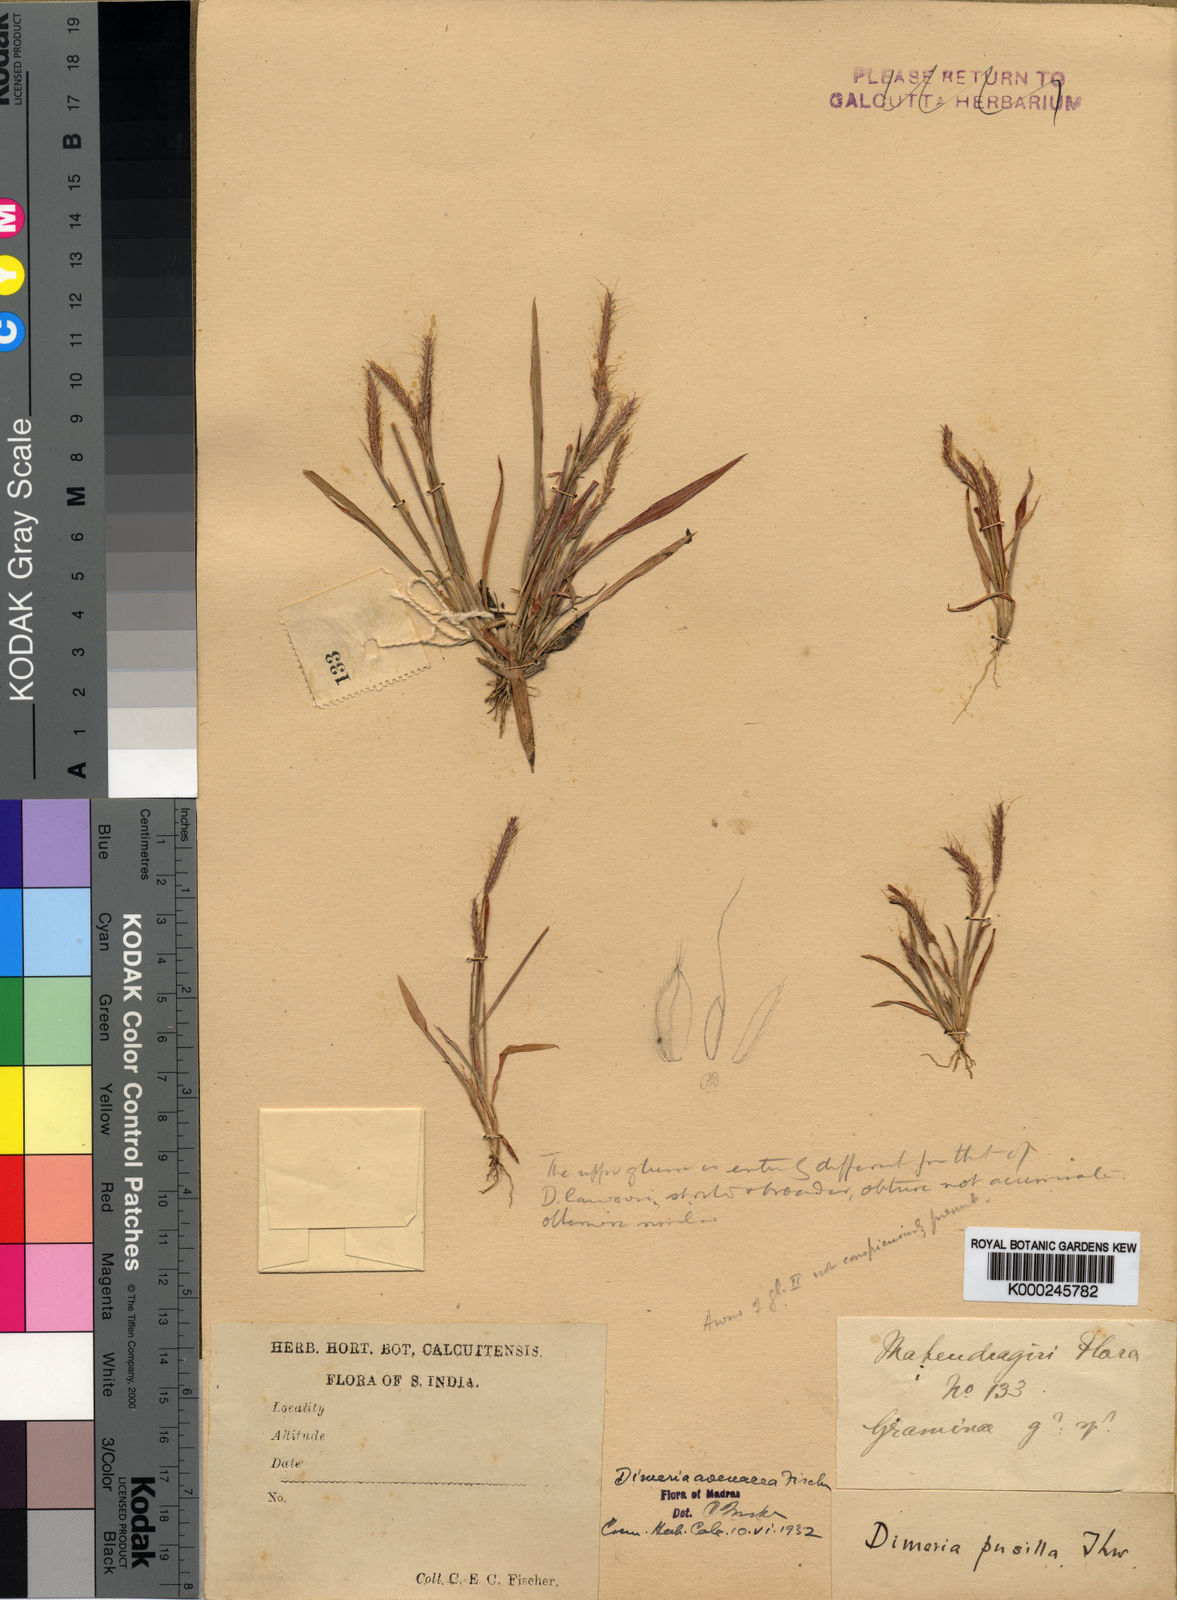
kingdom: Plantae
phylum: Tracheophyta
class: Liliopsida
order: Poales
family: Poaceae
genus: Dimeria
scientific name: Dimeria fischeri
